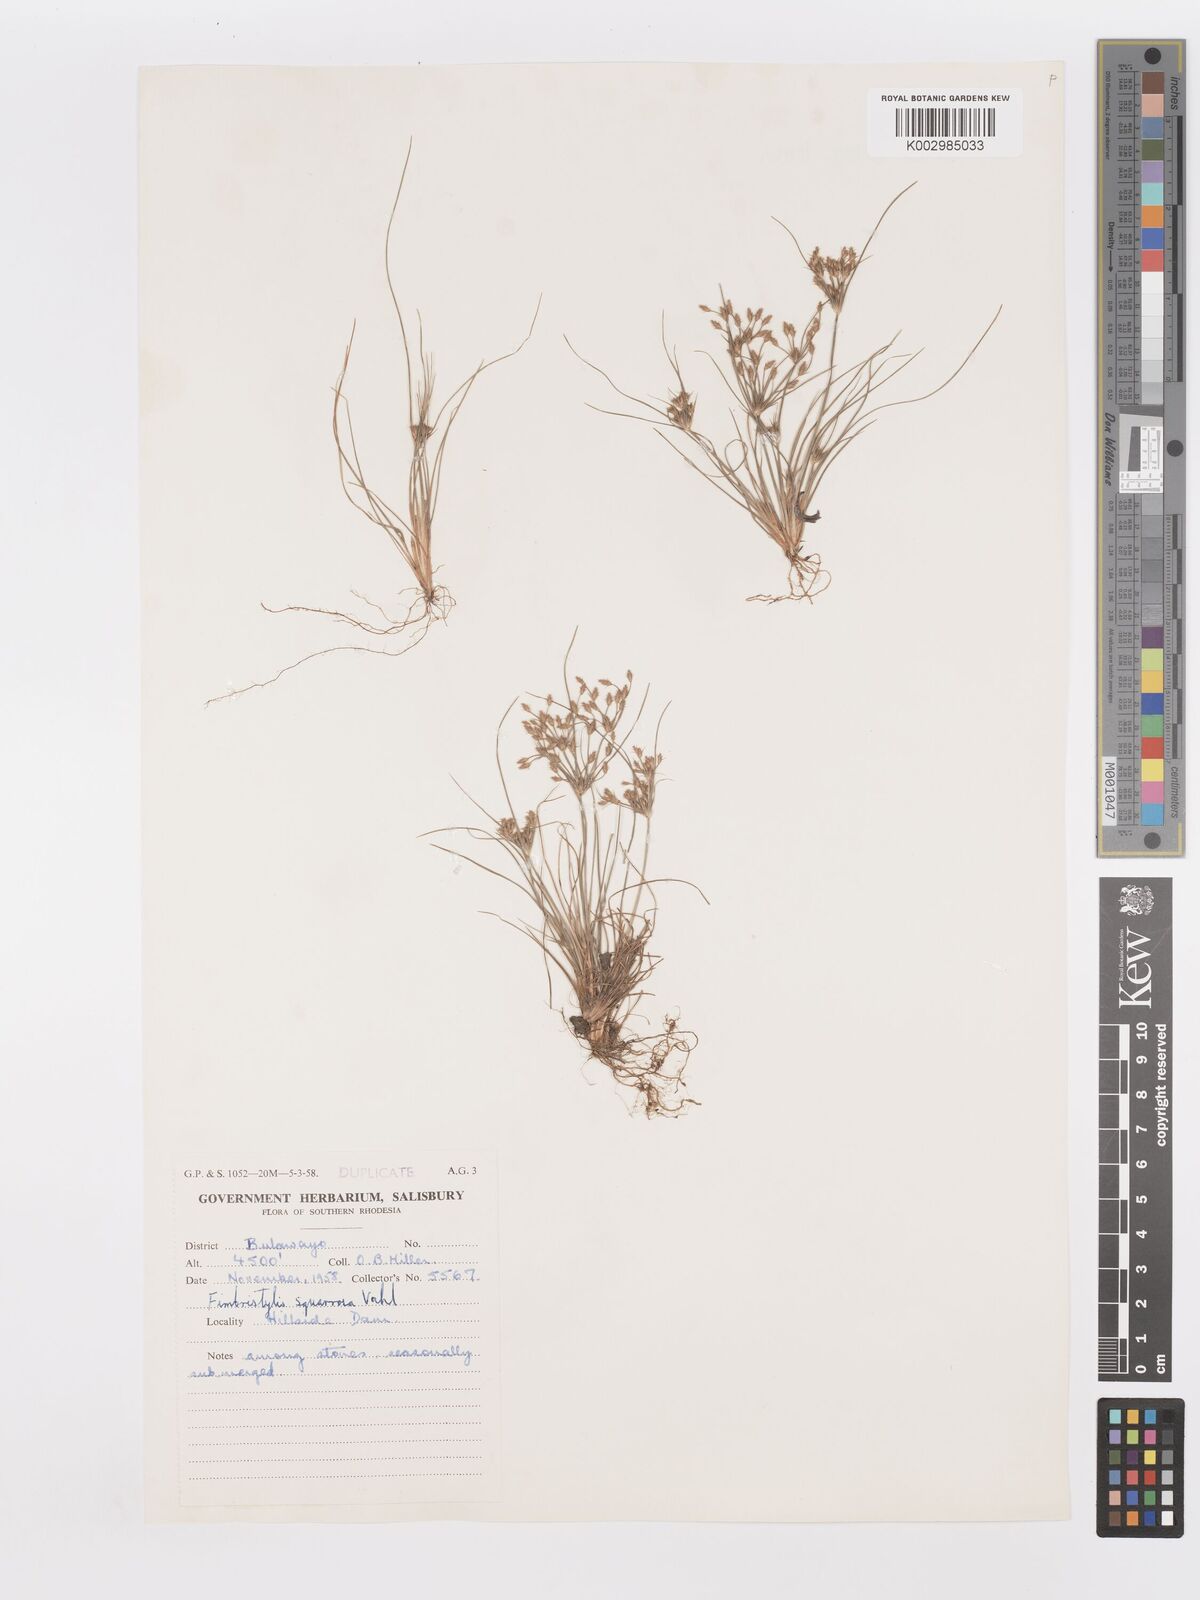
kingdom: Plantae
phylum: Tracheophyta
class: Liliopsida
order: Poales
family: Cyperaceae
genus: Fimbristylis
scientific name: Fimbristylis squarrosa
